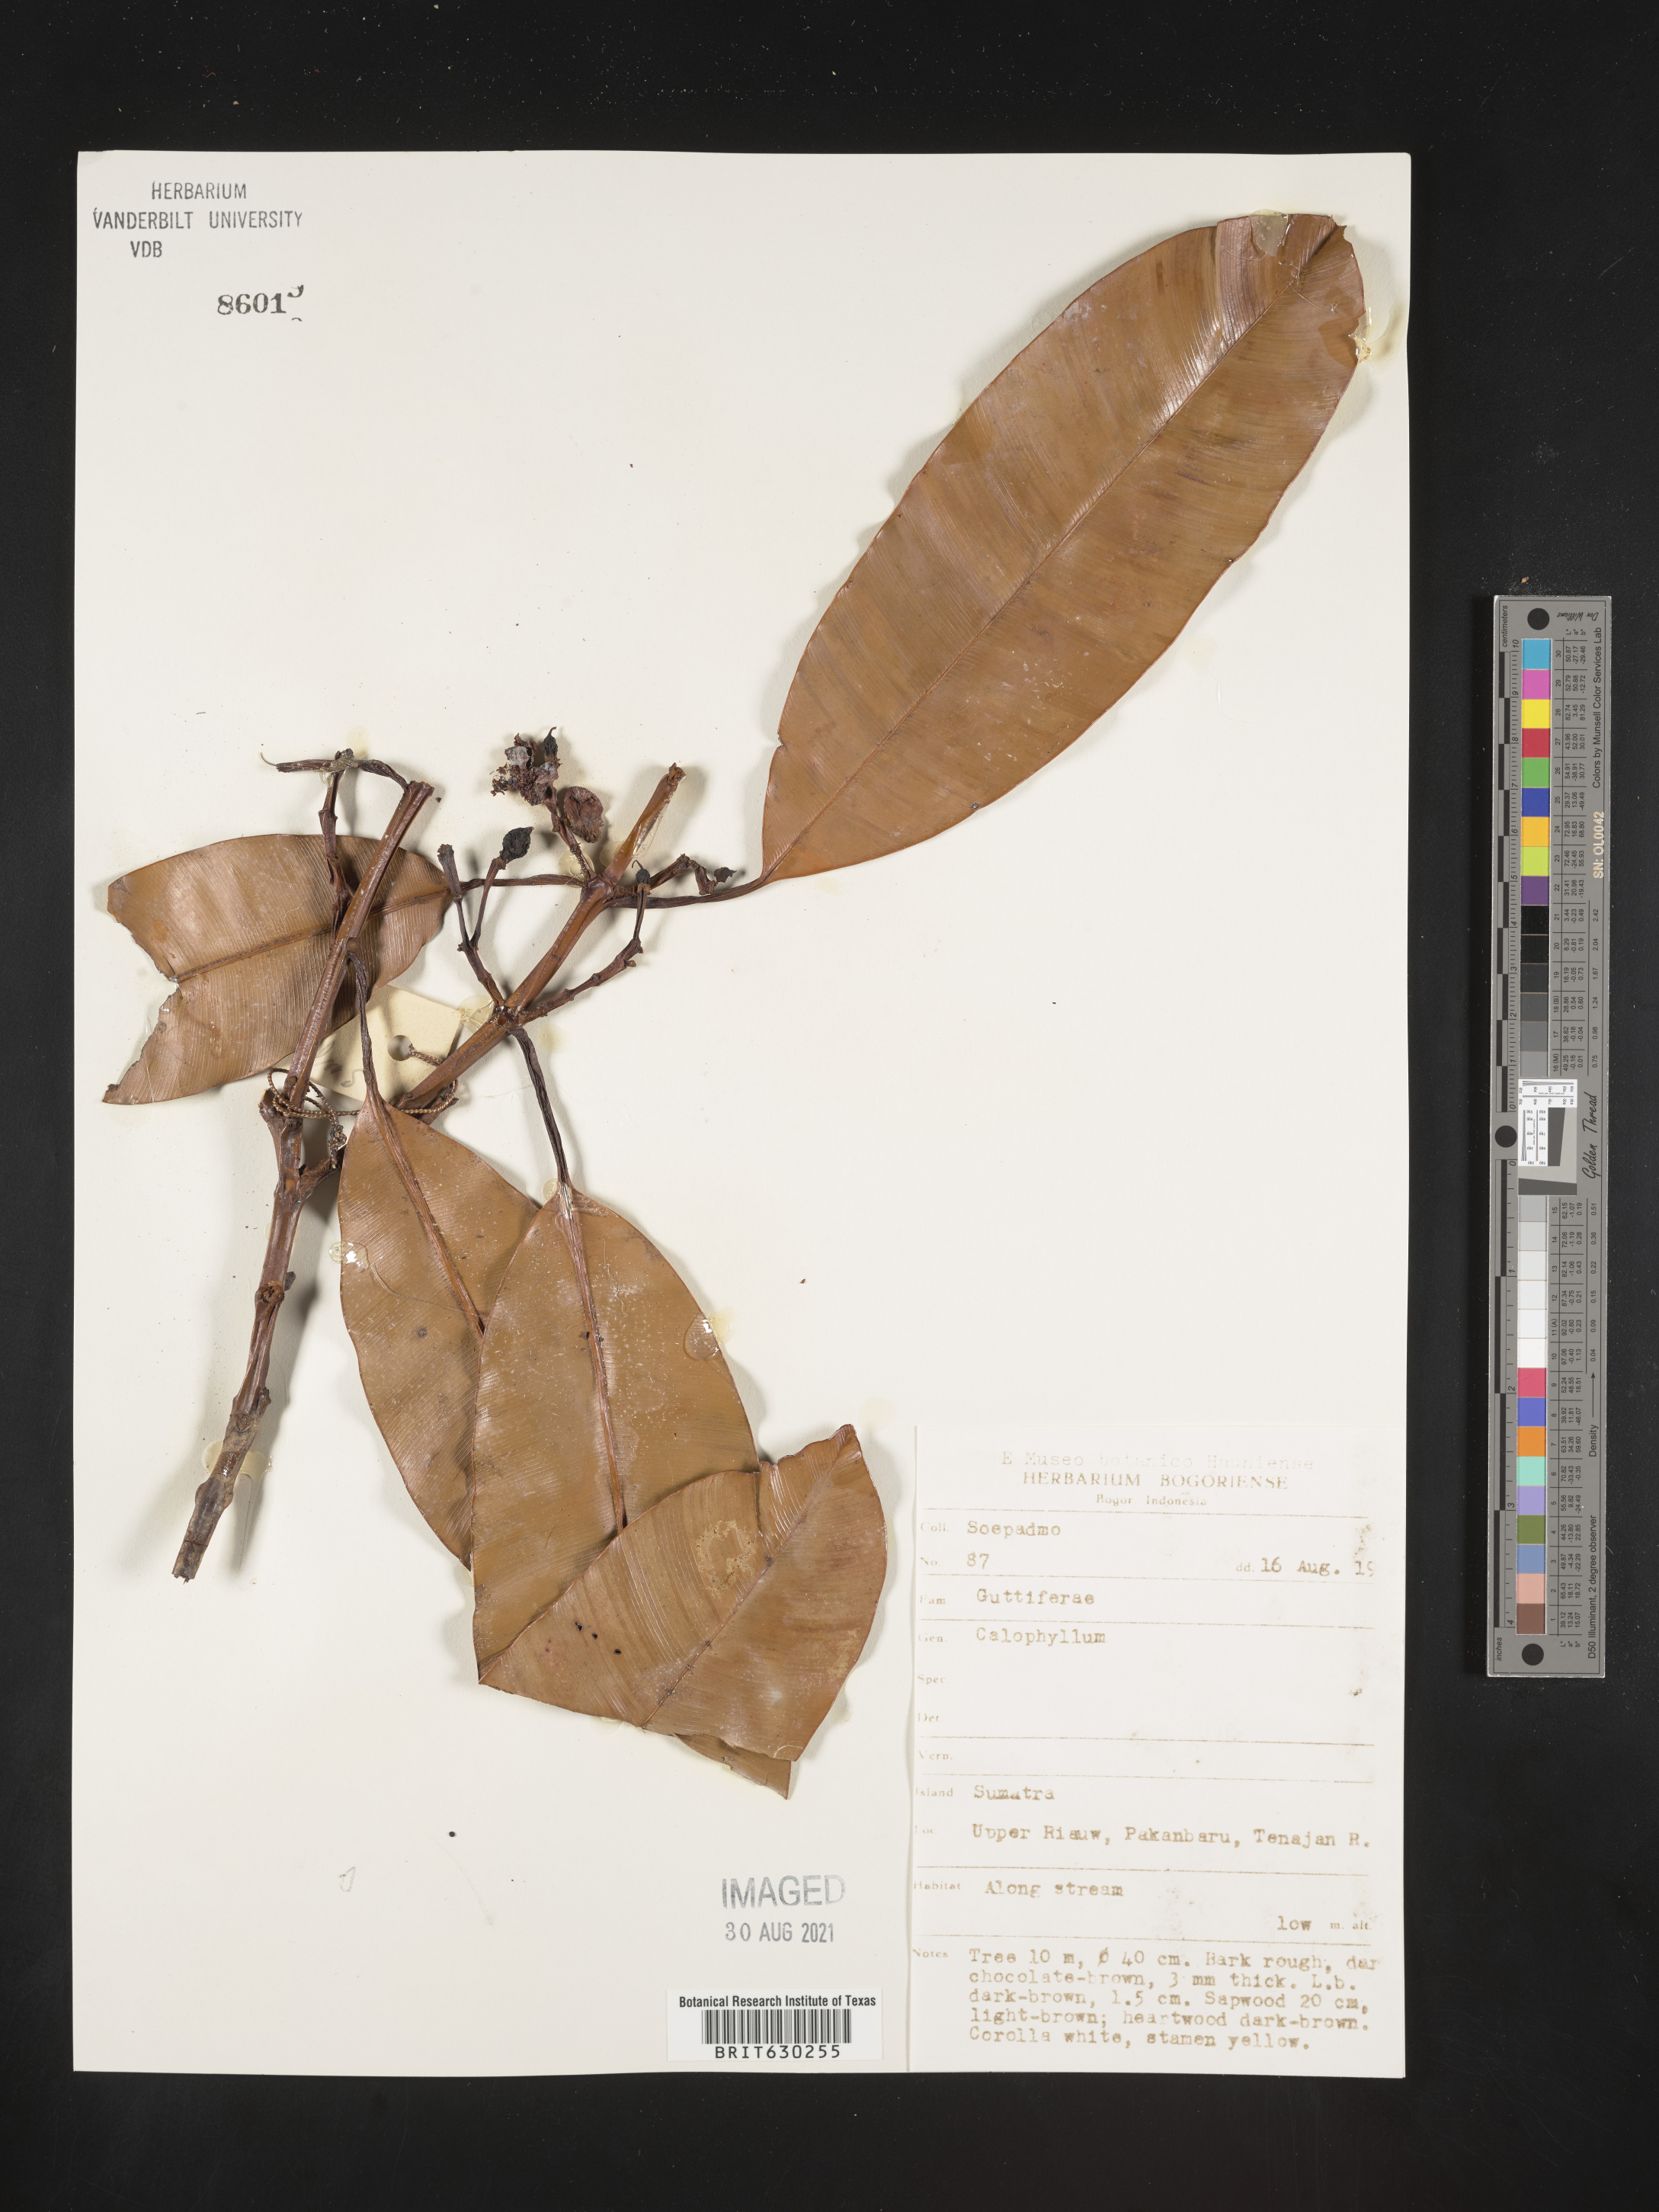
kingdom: Plantae
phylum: Tracheophyta
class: Magnoliopsida
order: Malpighiales
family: Calophyllaceae
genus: Calophyllum
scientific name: Calophyllum
